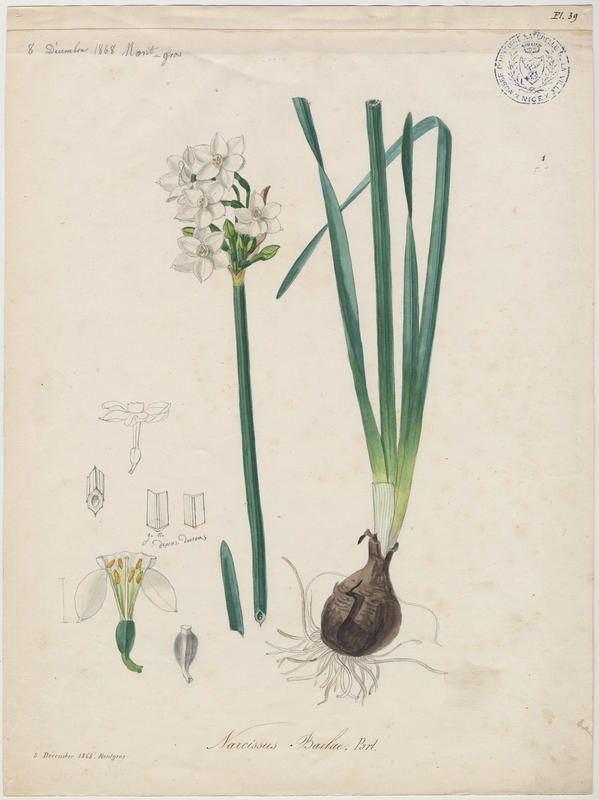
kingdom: Plantae
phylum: Tracheophyta
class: Liliopsida
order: Asparagales
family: Amaryllidaceae
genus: Narcissus
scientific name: Narcissus papyraceus
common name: Paper-white daffodil
